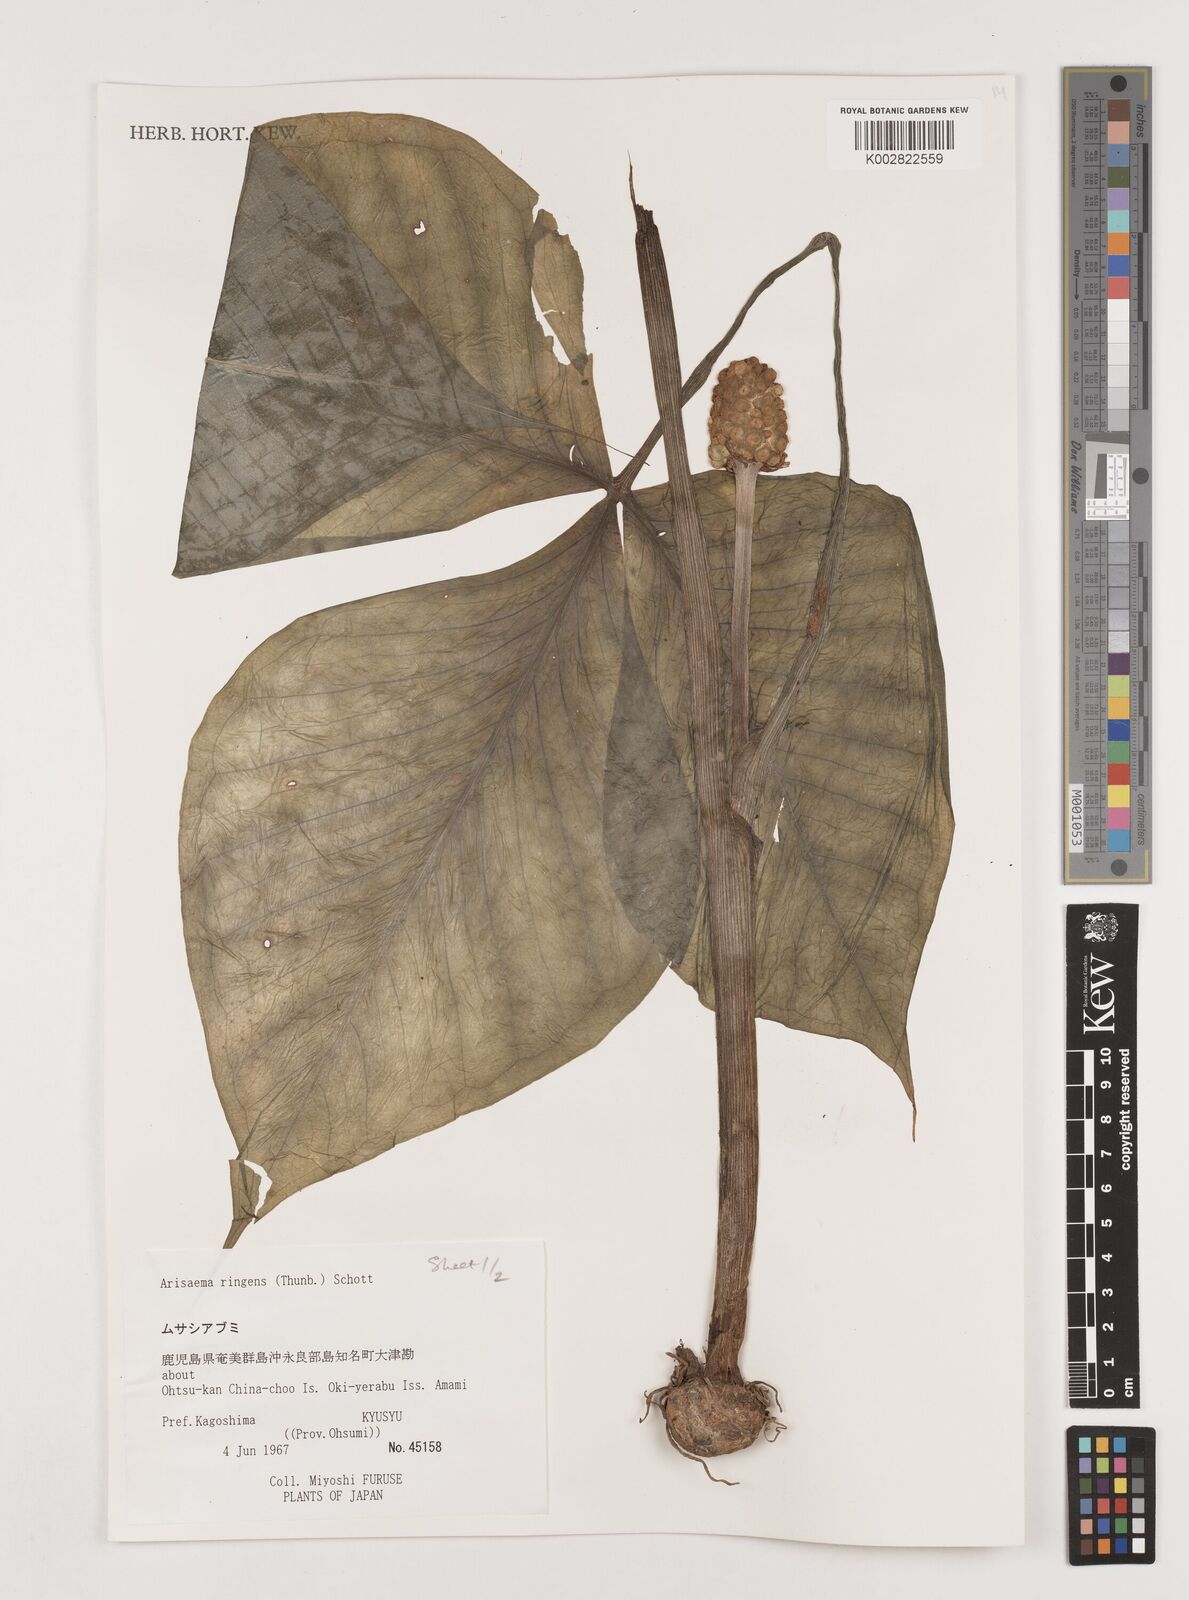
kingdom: Plantae
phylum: Tracheophyta
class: Liliopsida
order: Alismatales
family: Araceae
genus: Arisaema
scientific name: Arisaema ringens
